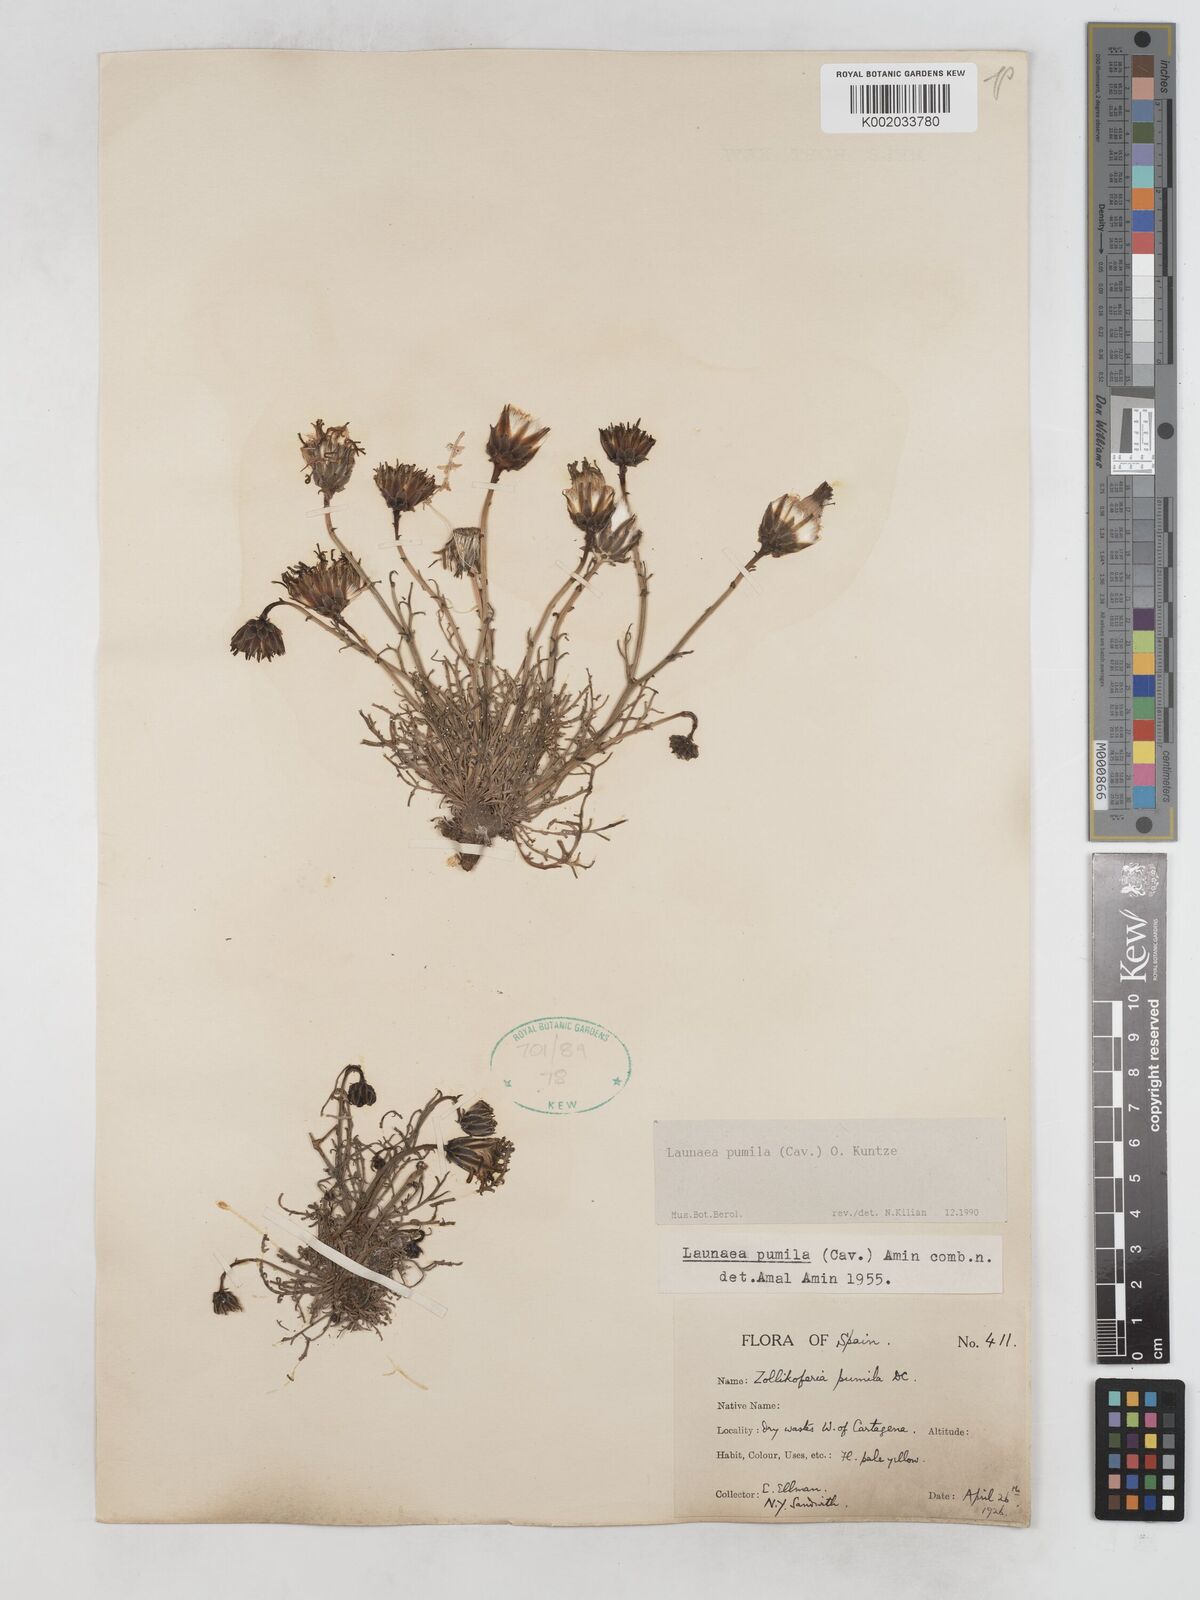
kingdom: Plantae
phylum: Tracheophyta
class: Magnoliopsida
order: Asterales
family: Asteraceae
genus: Launaea
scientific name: Launaea pumila
